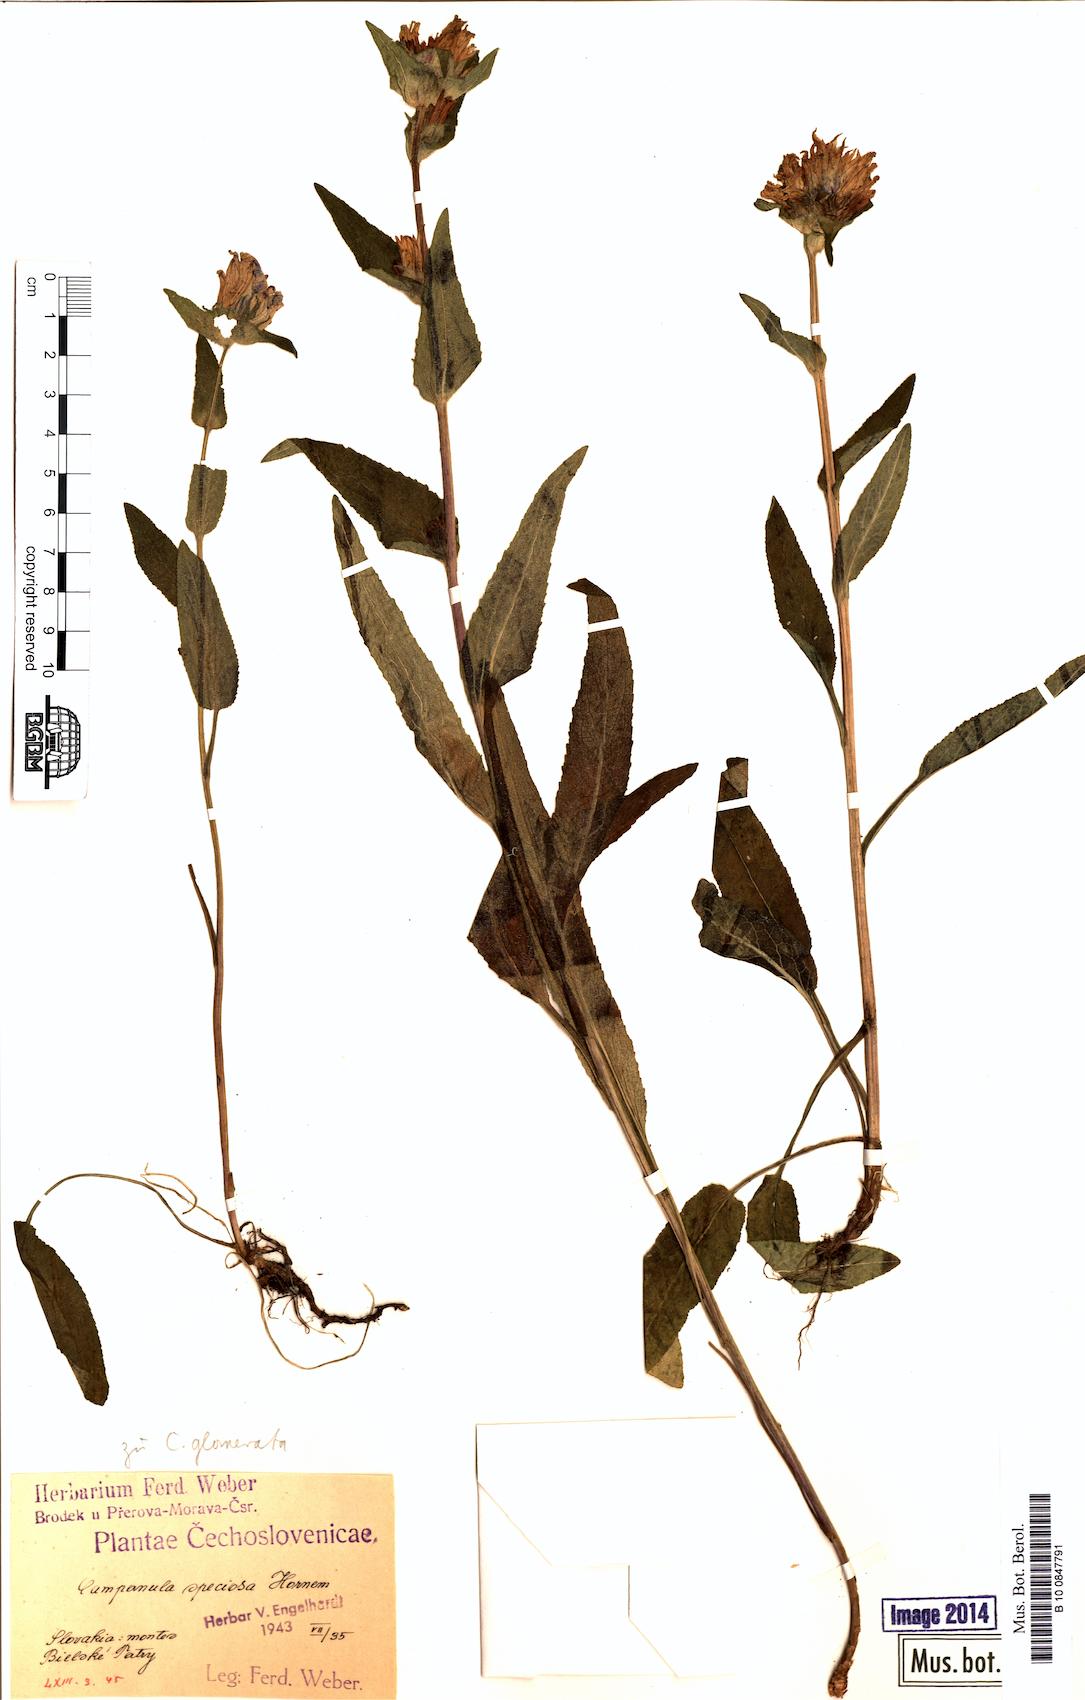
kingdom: Plantae
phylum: Tracheophyta
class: Magnoliopsida
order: Asterales
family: Campanulaceae
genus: Campanula
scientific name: Campanula glomerata
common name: Clustered bellflower
